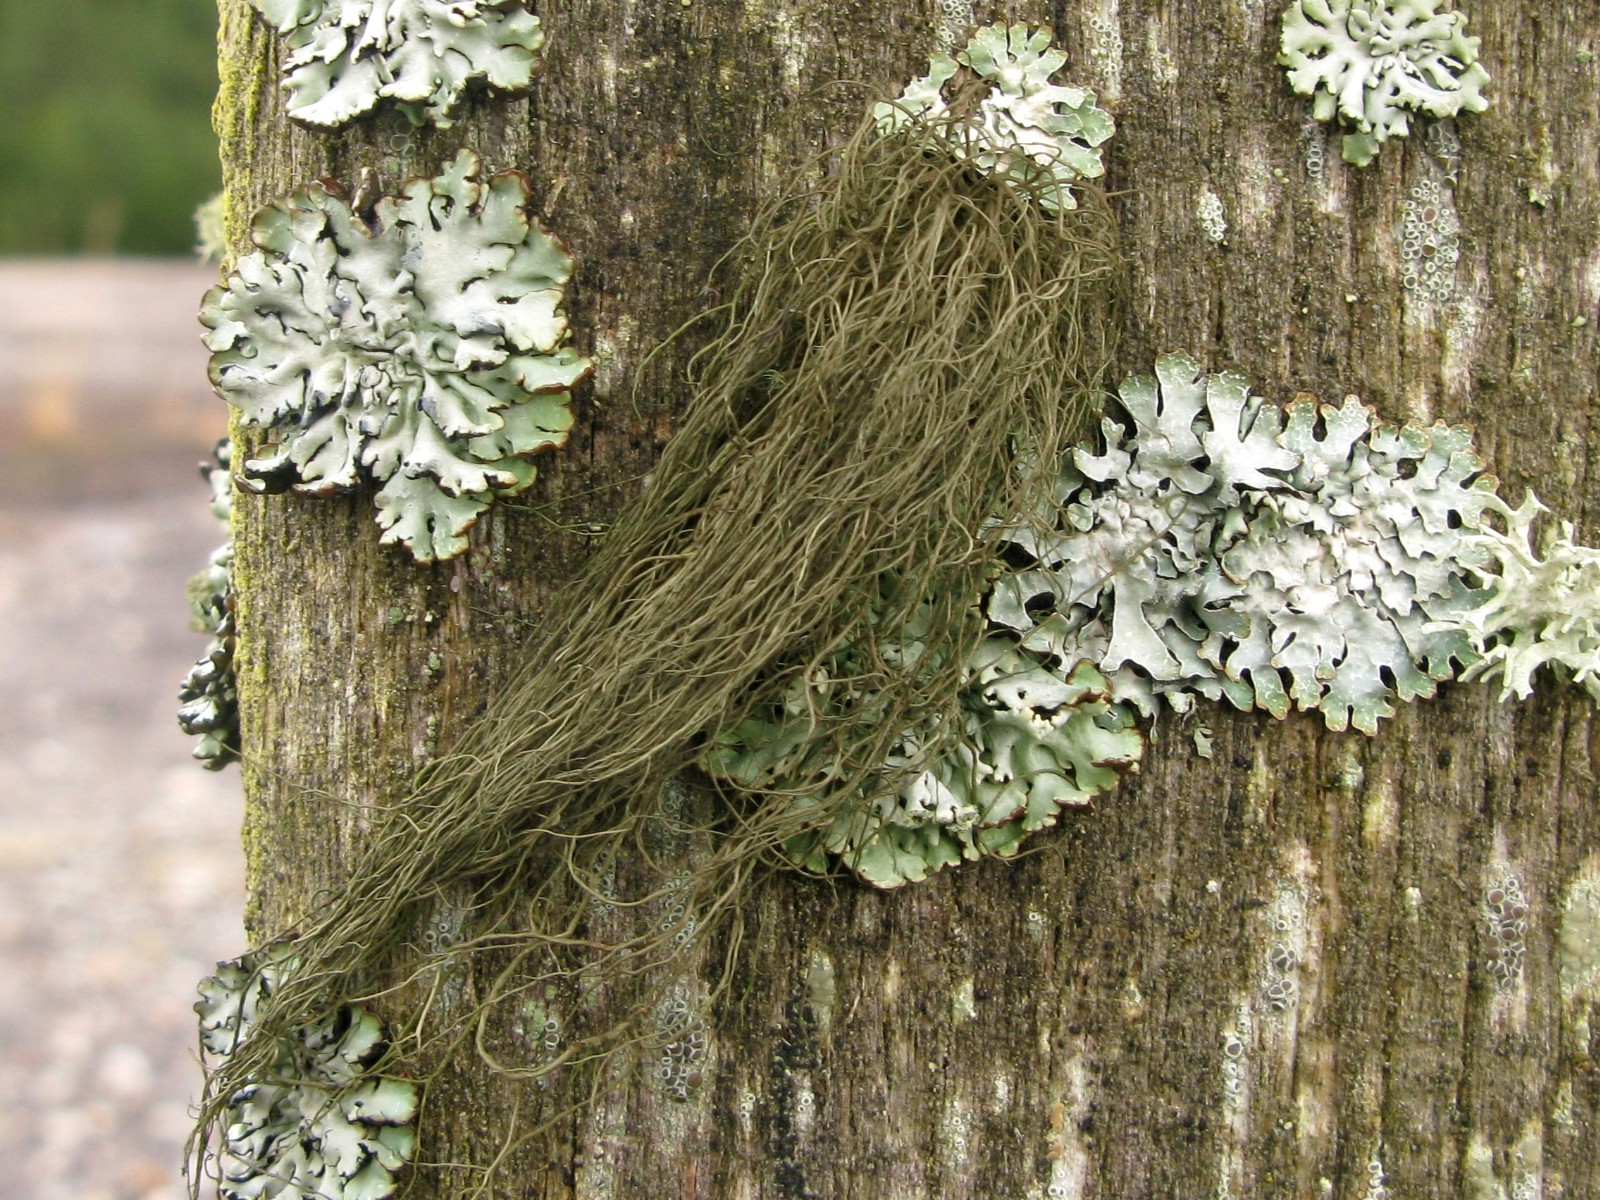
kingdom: Fungi
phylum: Ascomycota
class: Lecanoromycetes
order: Lecanorales
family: Parmeliaceae
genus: Bryoria
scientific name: Bryoria fuscescens
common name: almindelig mankelav
